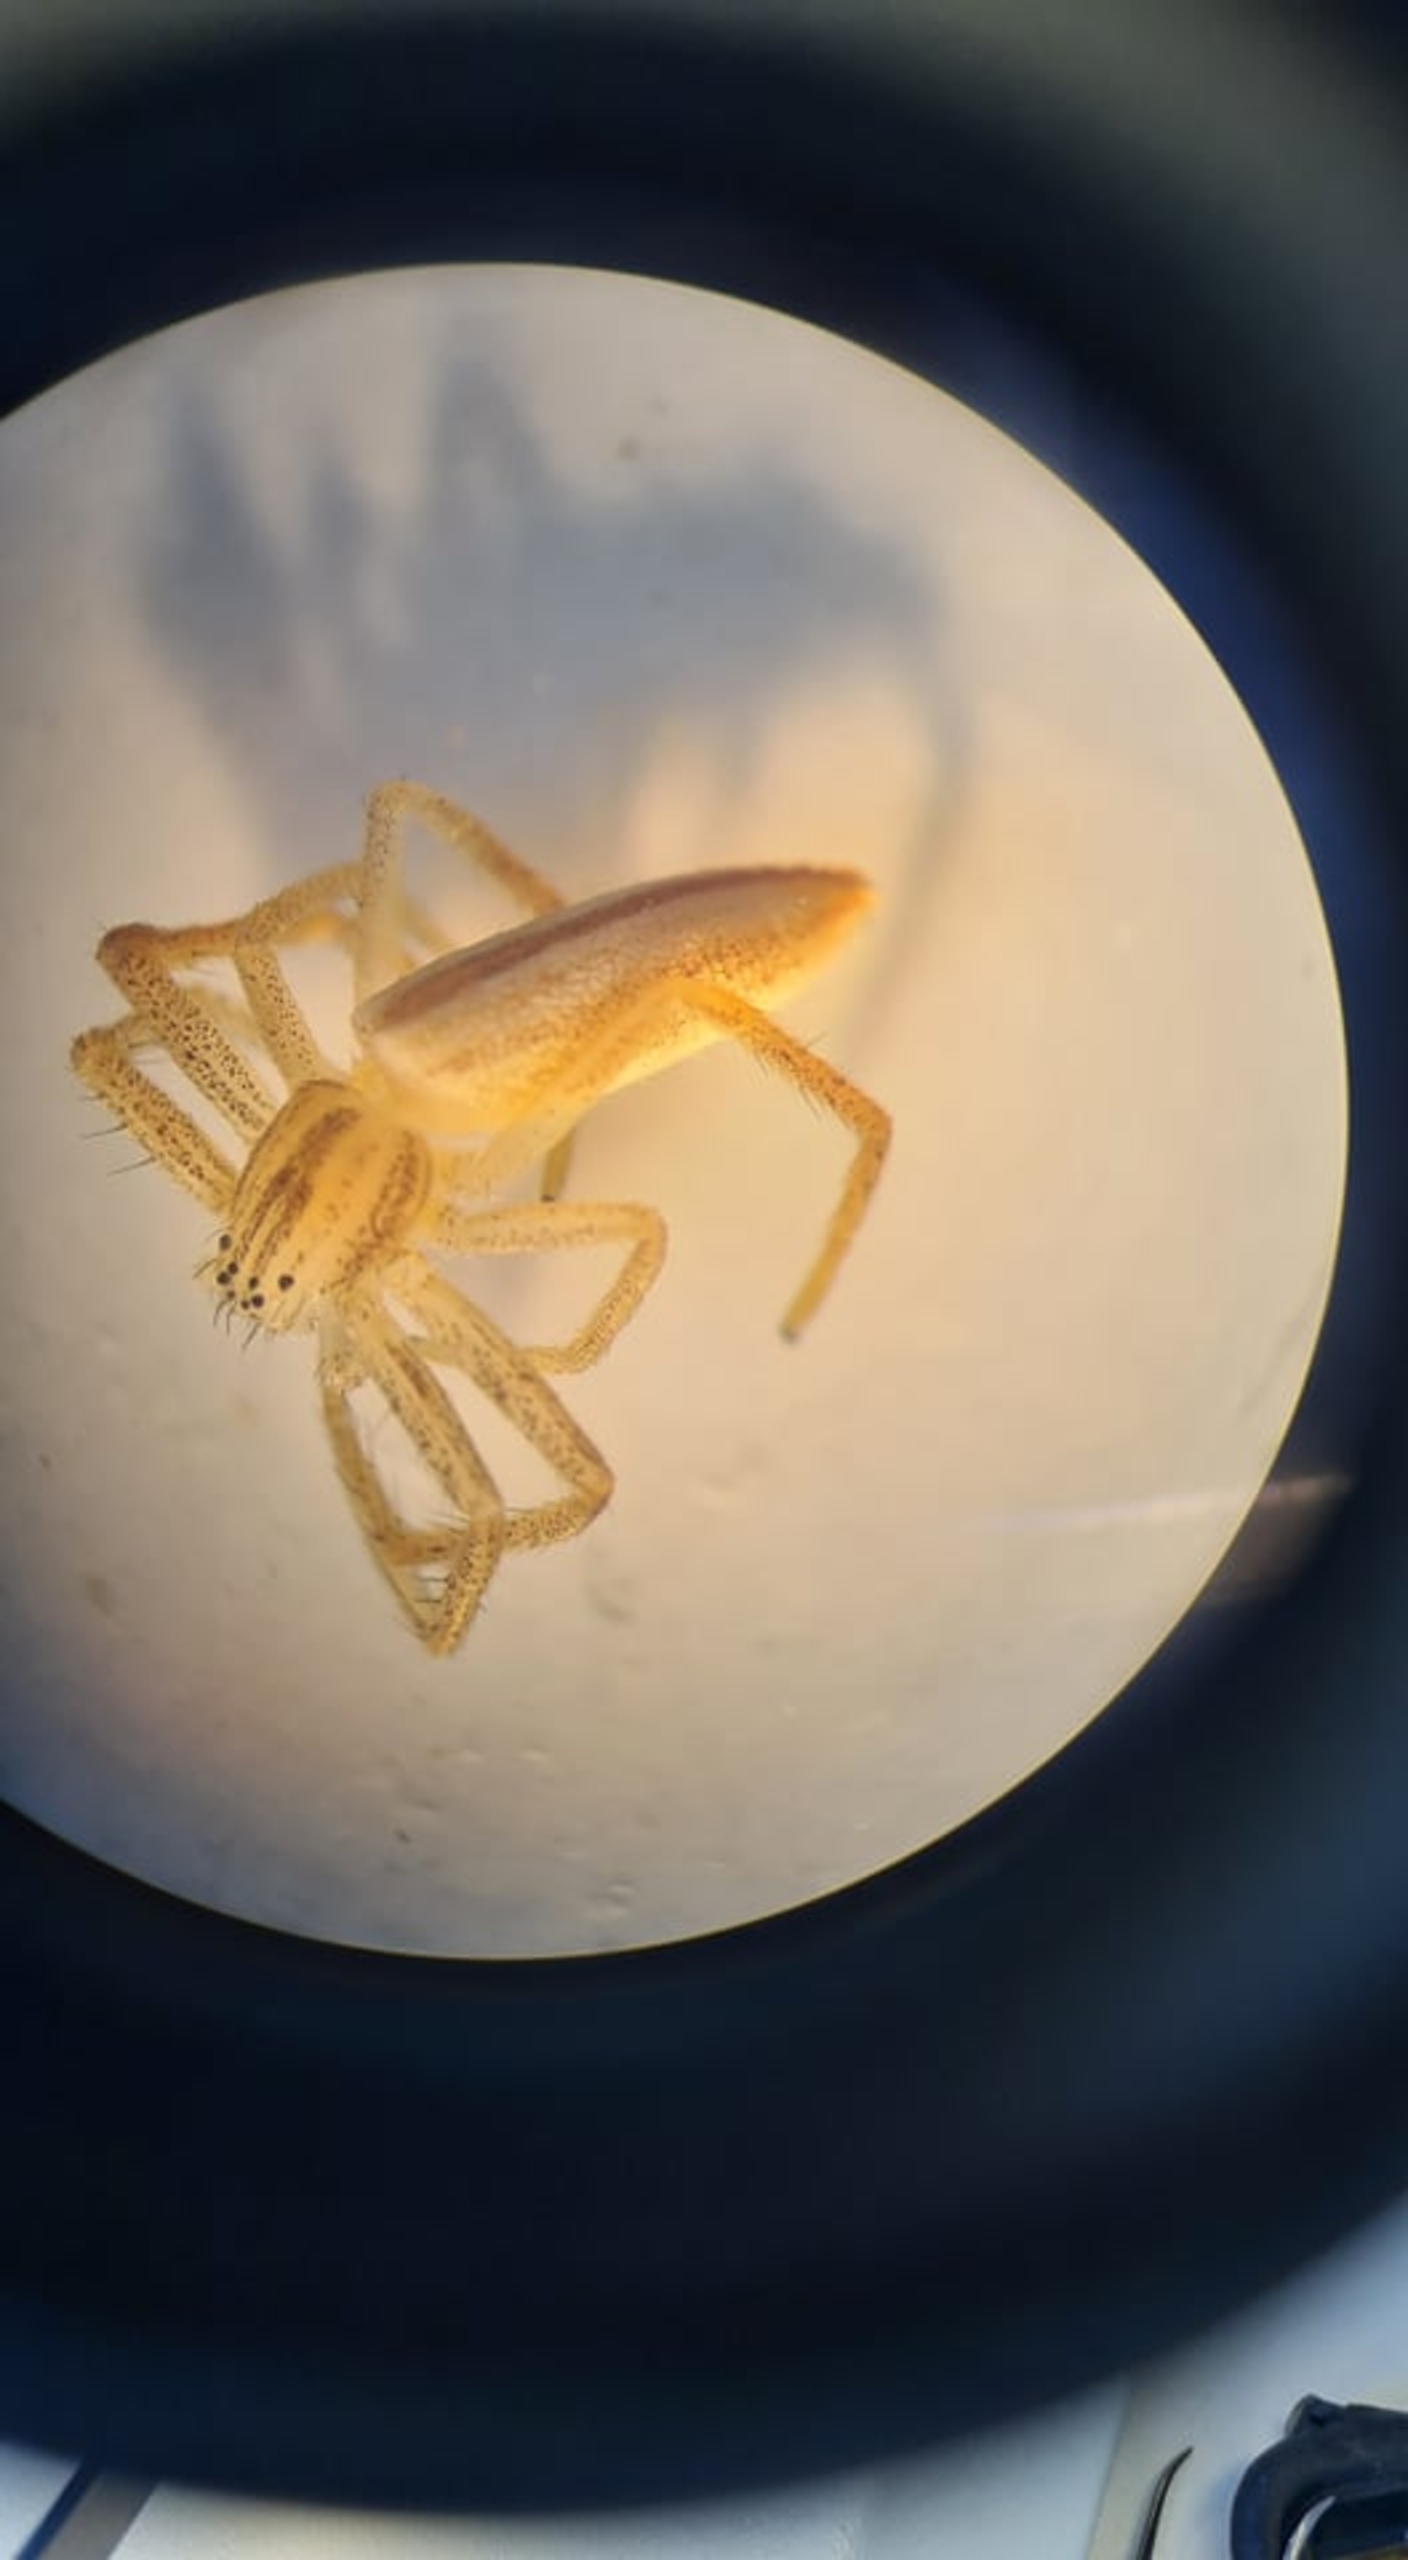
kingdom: Animalia
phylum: Arthropoda
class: Arachnida
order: Araneae
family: Philodromidae
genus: Tibellus
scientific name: Tibellus
